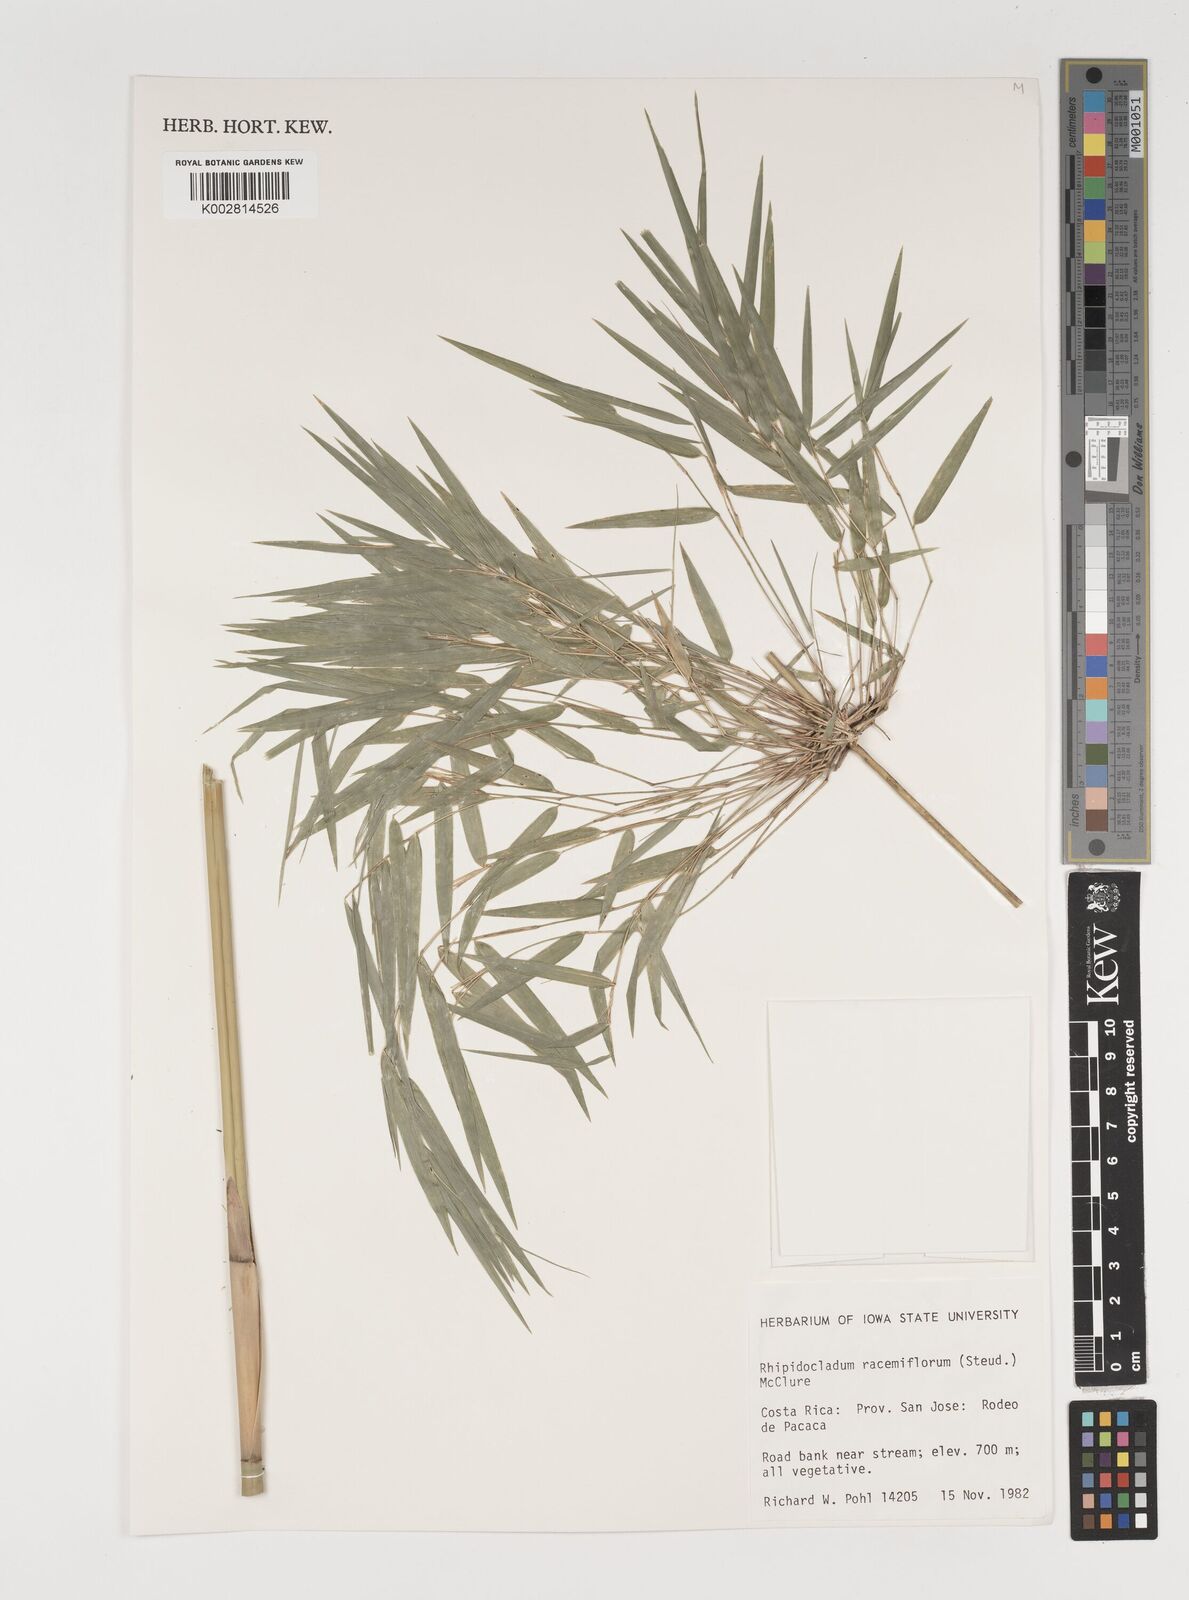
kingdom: Plantae
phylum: Tracheophyta
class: Liliopsida
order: Poales
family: Poaceae
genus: Rhipidocladum
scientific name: Rhipidocladum racemiflorum
